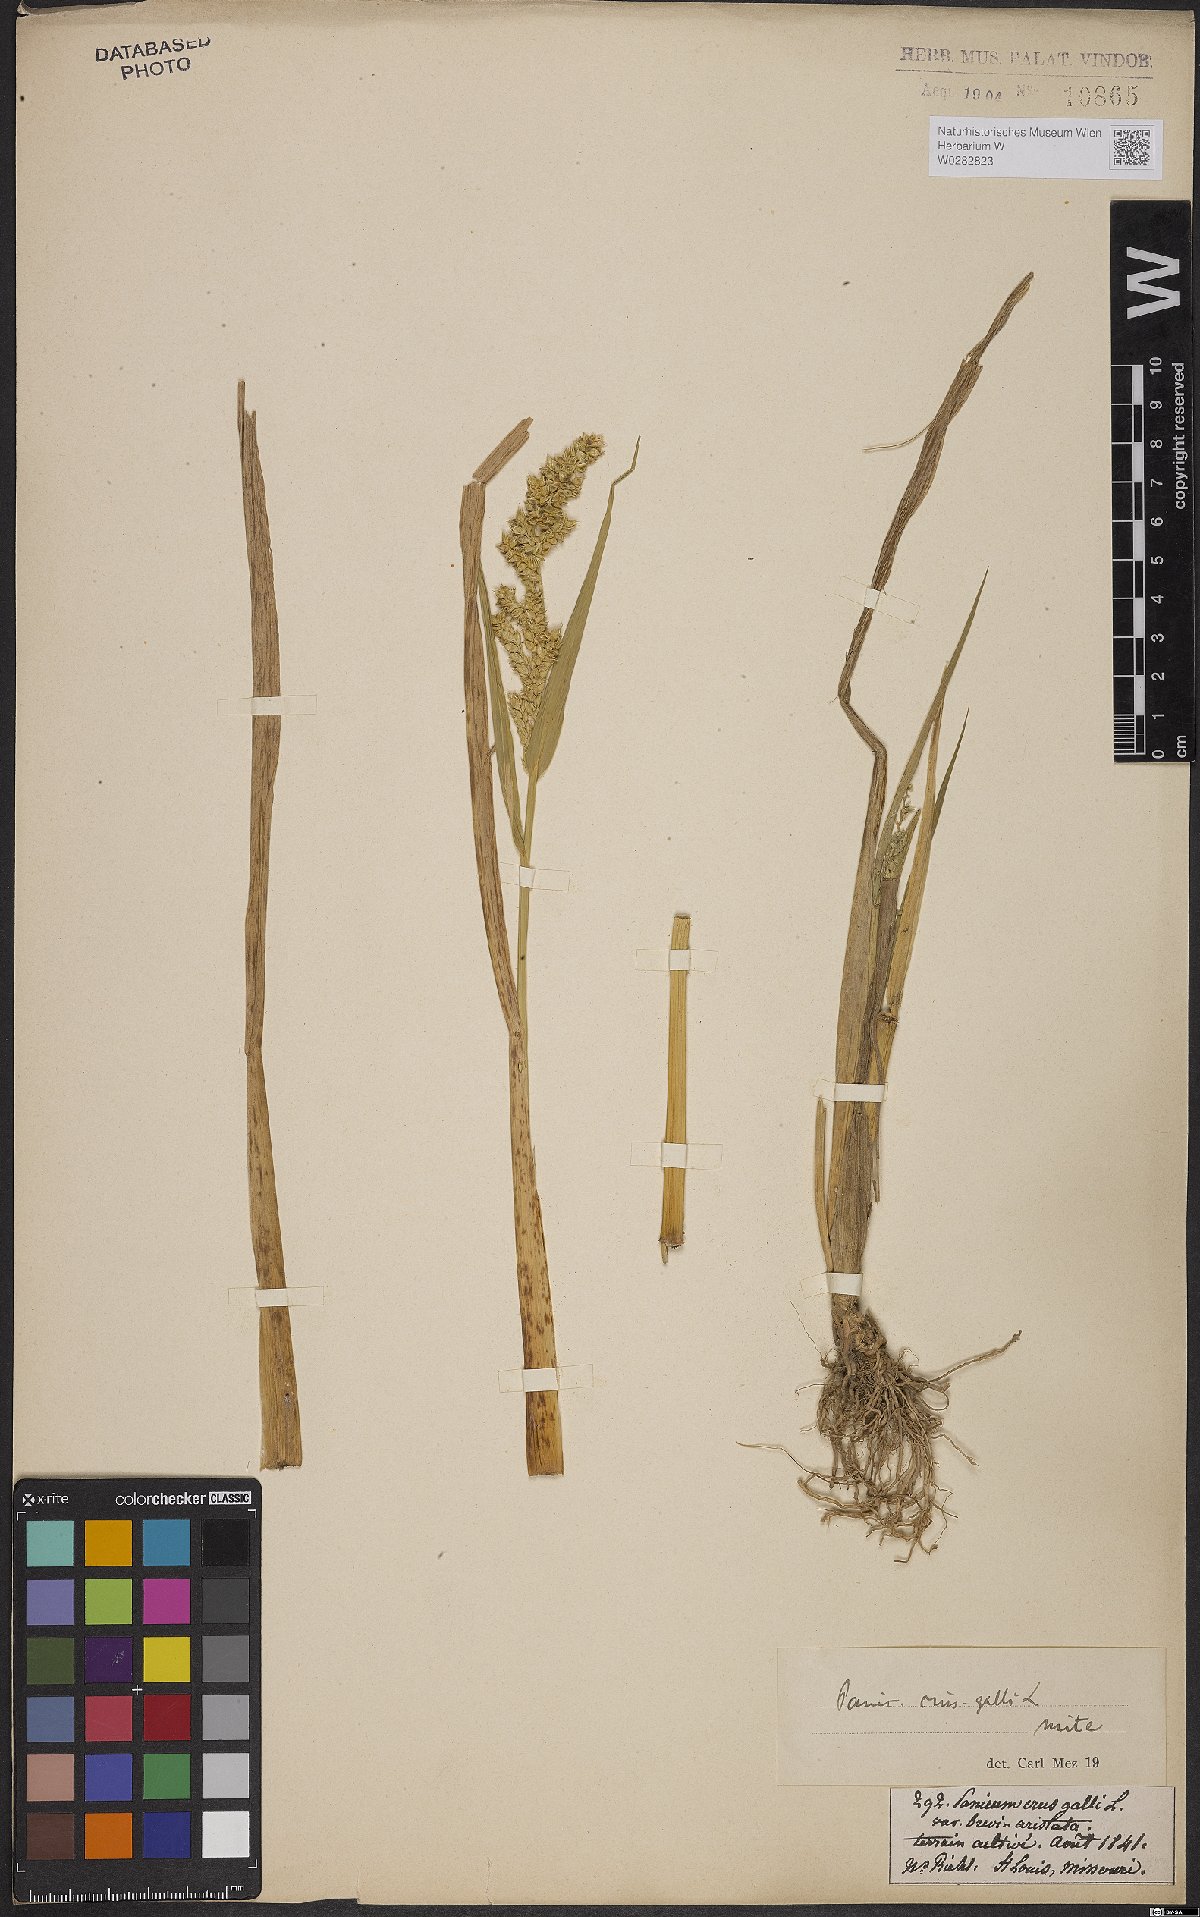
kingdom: Plantae
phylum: Tracheophyta
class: Liliopsida
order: Poales
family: Poaceae
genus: Echinochloa
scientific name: Echinochloa crus-galli
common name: Cockspur
